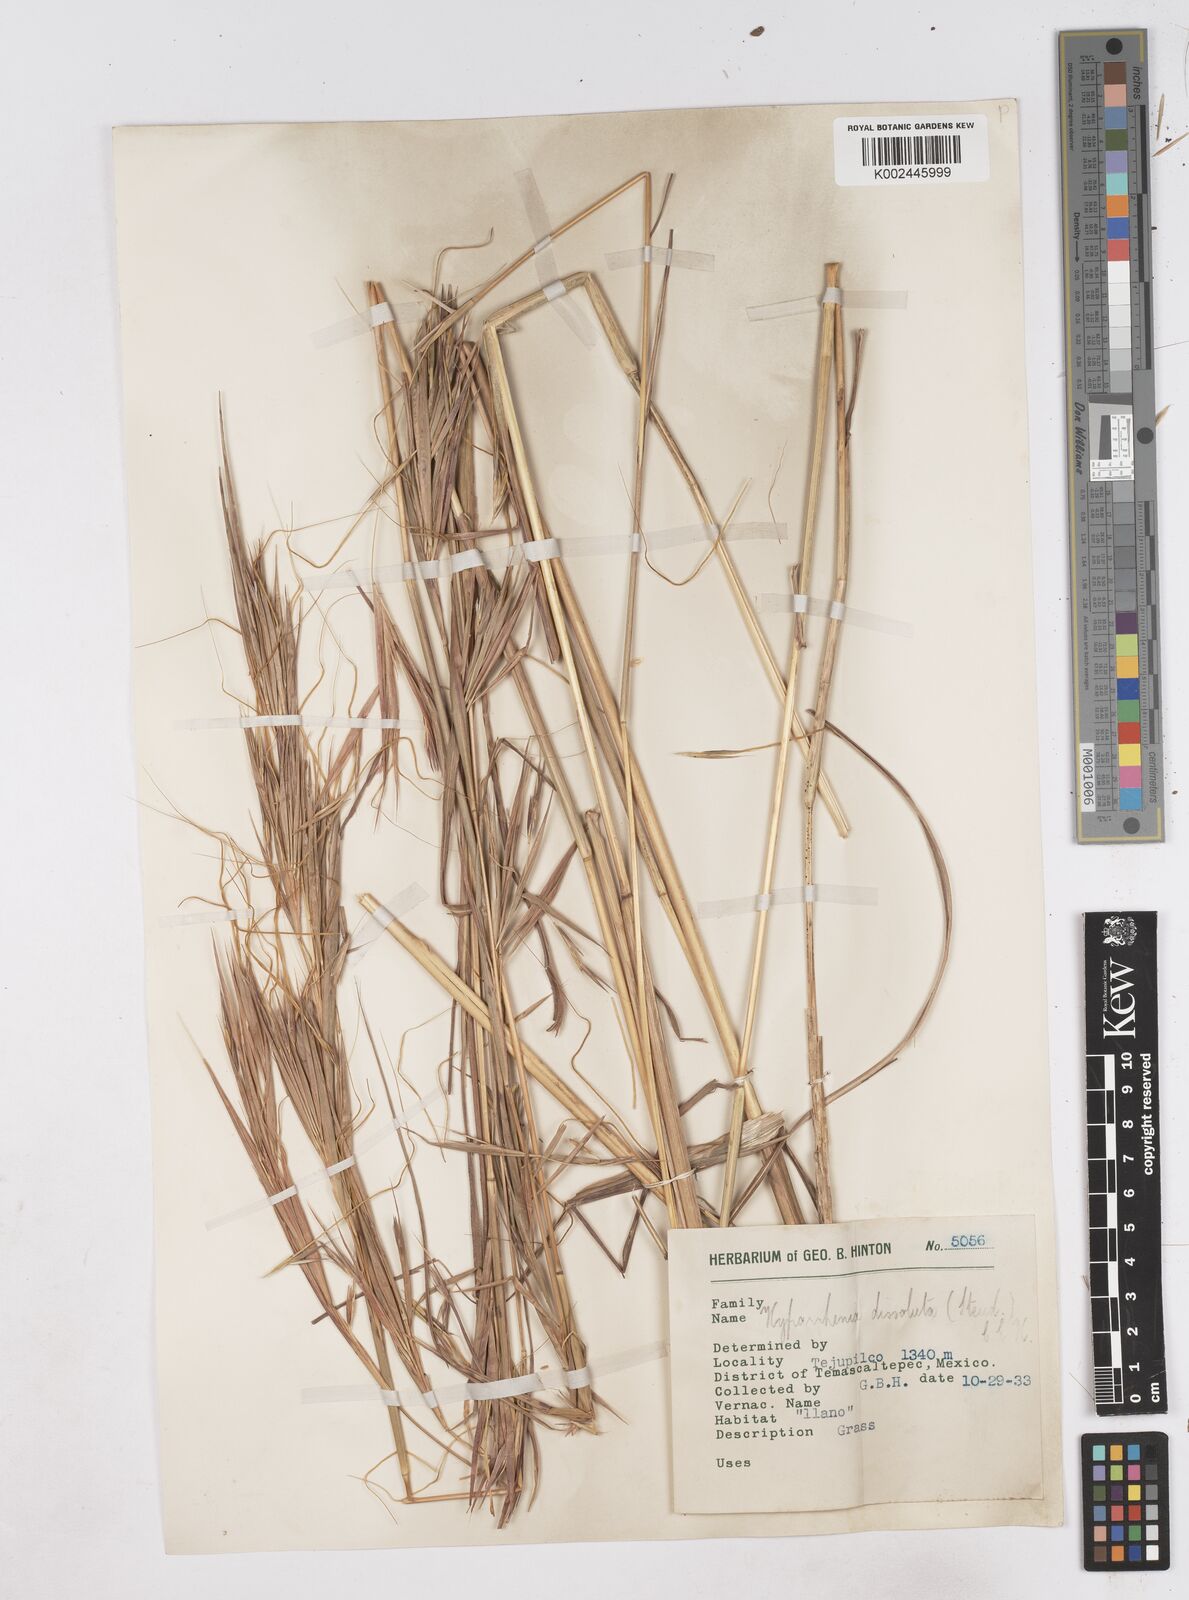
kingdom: Plantae
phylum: Tracheophyta
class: Liliopsida
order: Poales
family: Poaceae
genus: Hyperthelia
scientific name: Hyperthelia dissoluta
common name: Yellow thatching grass
